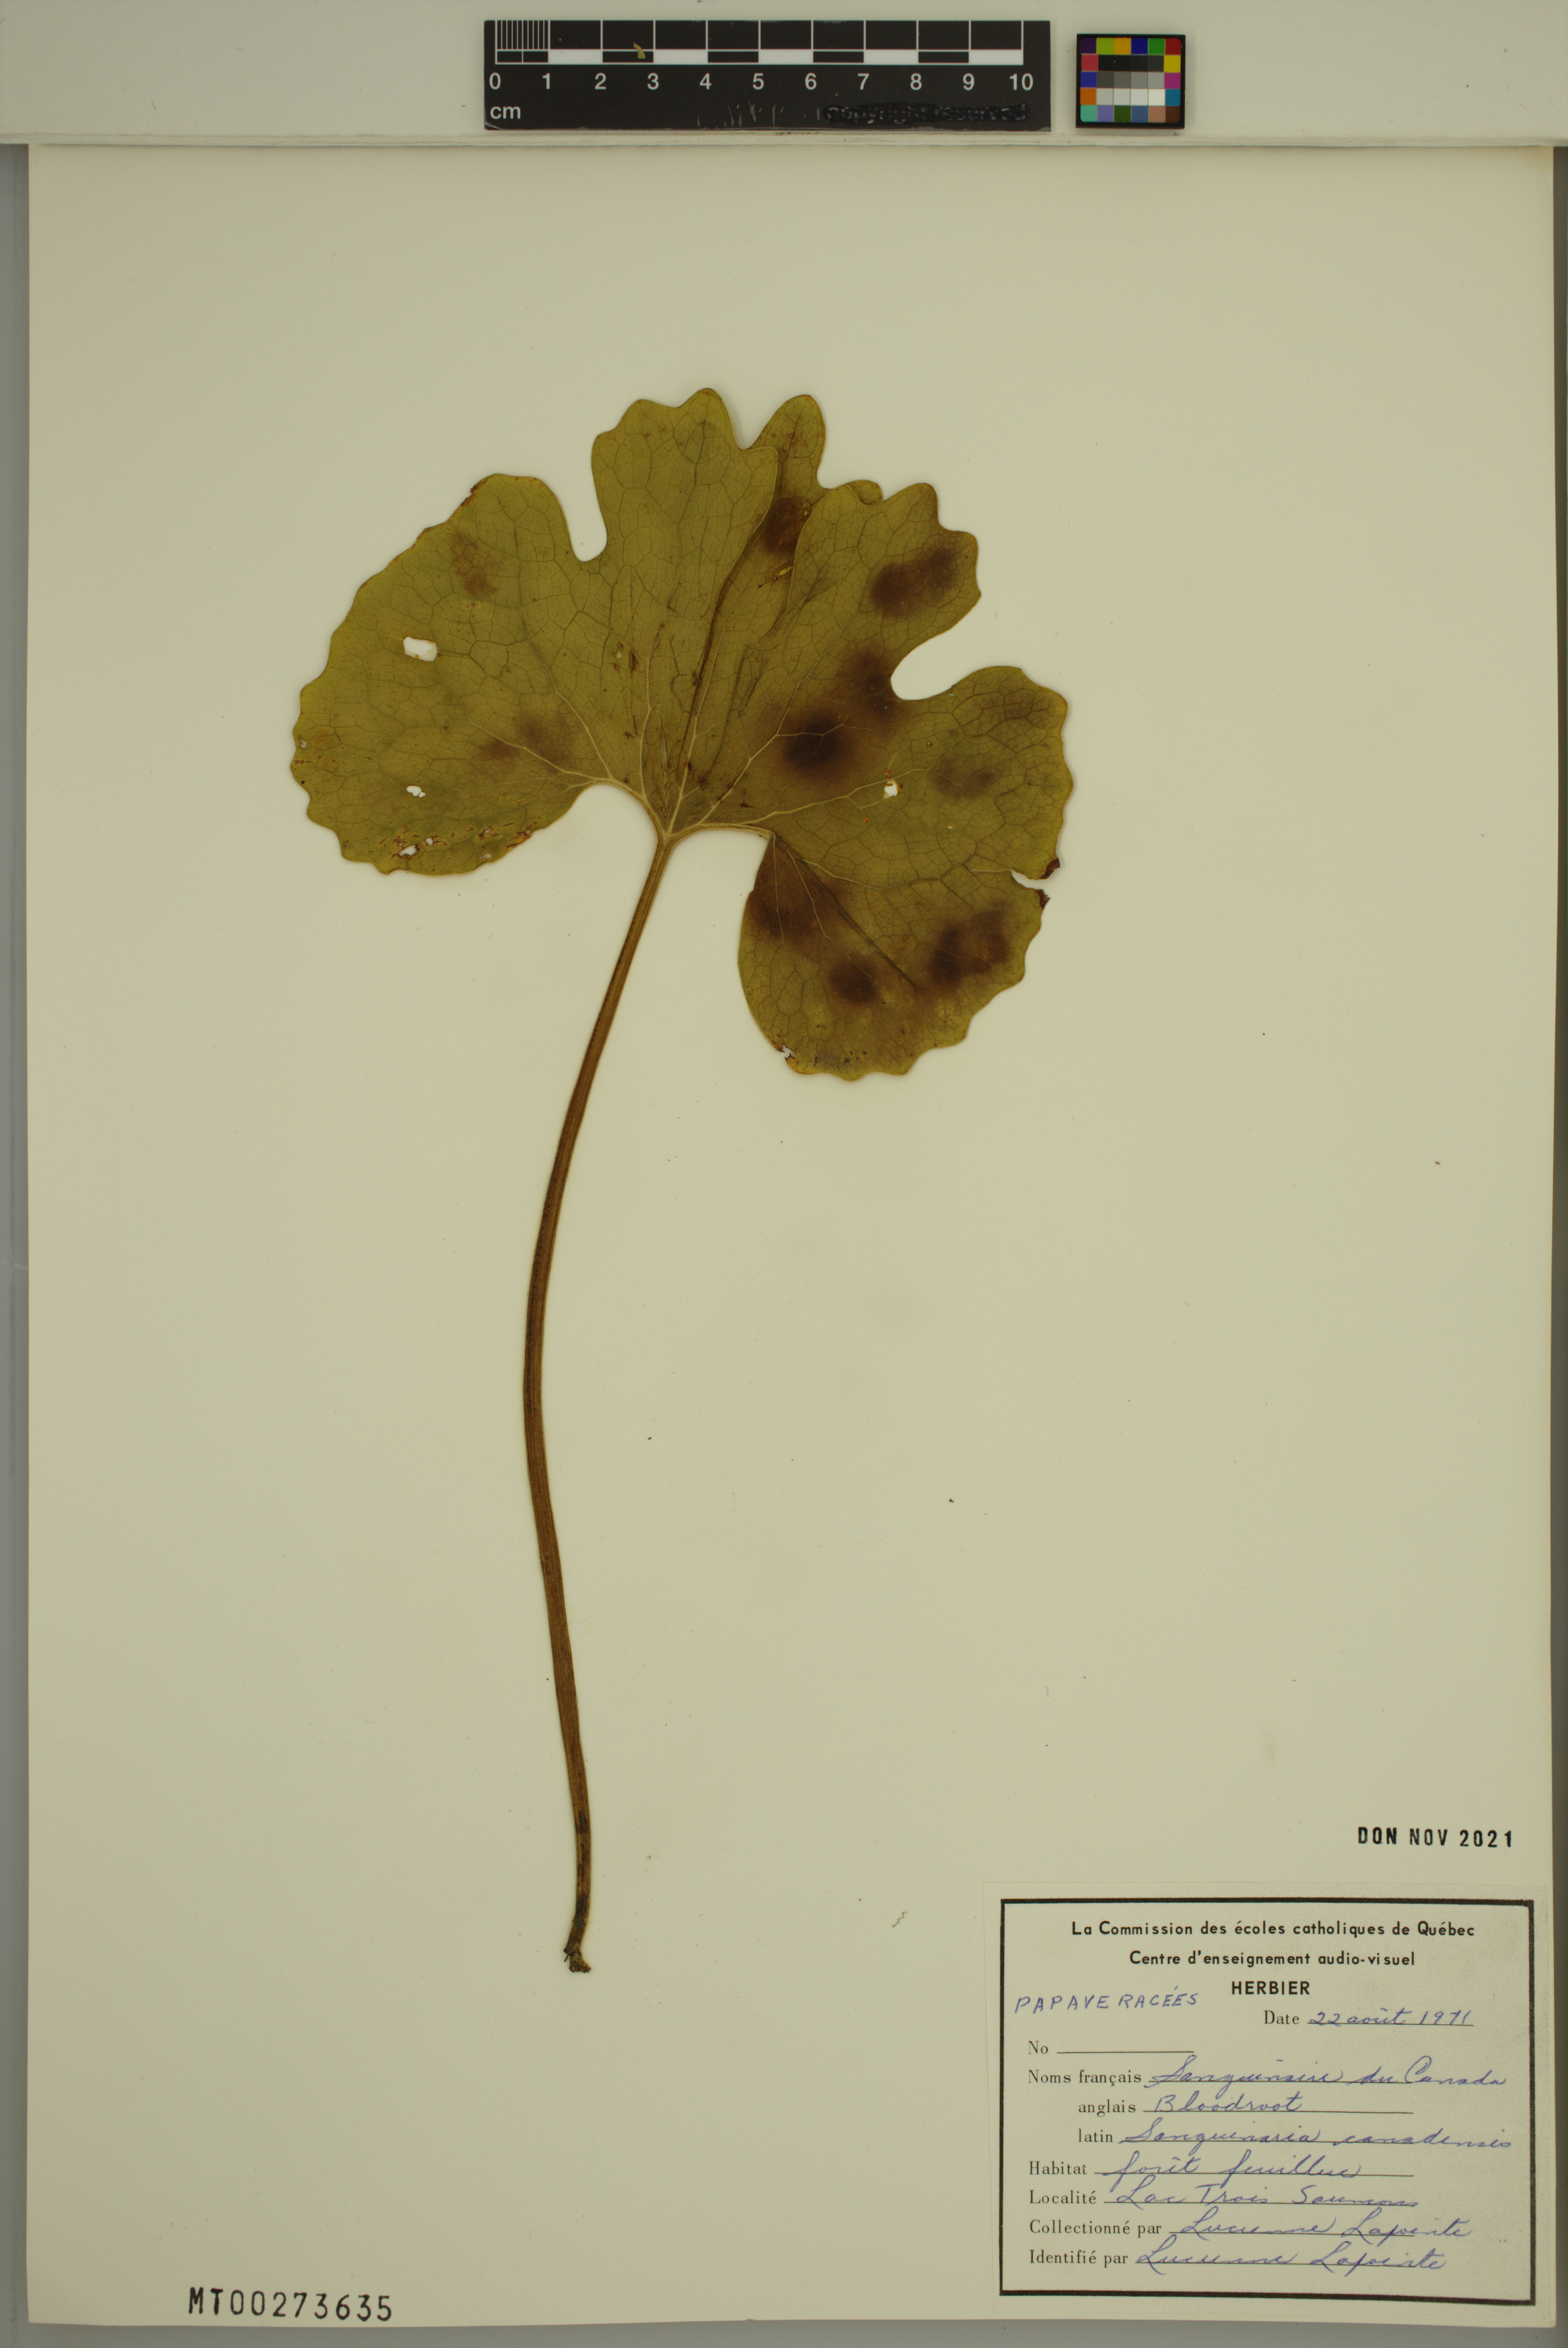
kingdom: Plantae
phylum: Tracheophyta
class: Magnoliopsida
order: Ranunculales
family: Papaveraceae
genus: Sanguinaria
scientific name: Sanguinaria canadensis
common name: Bloodroot
